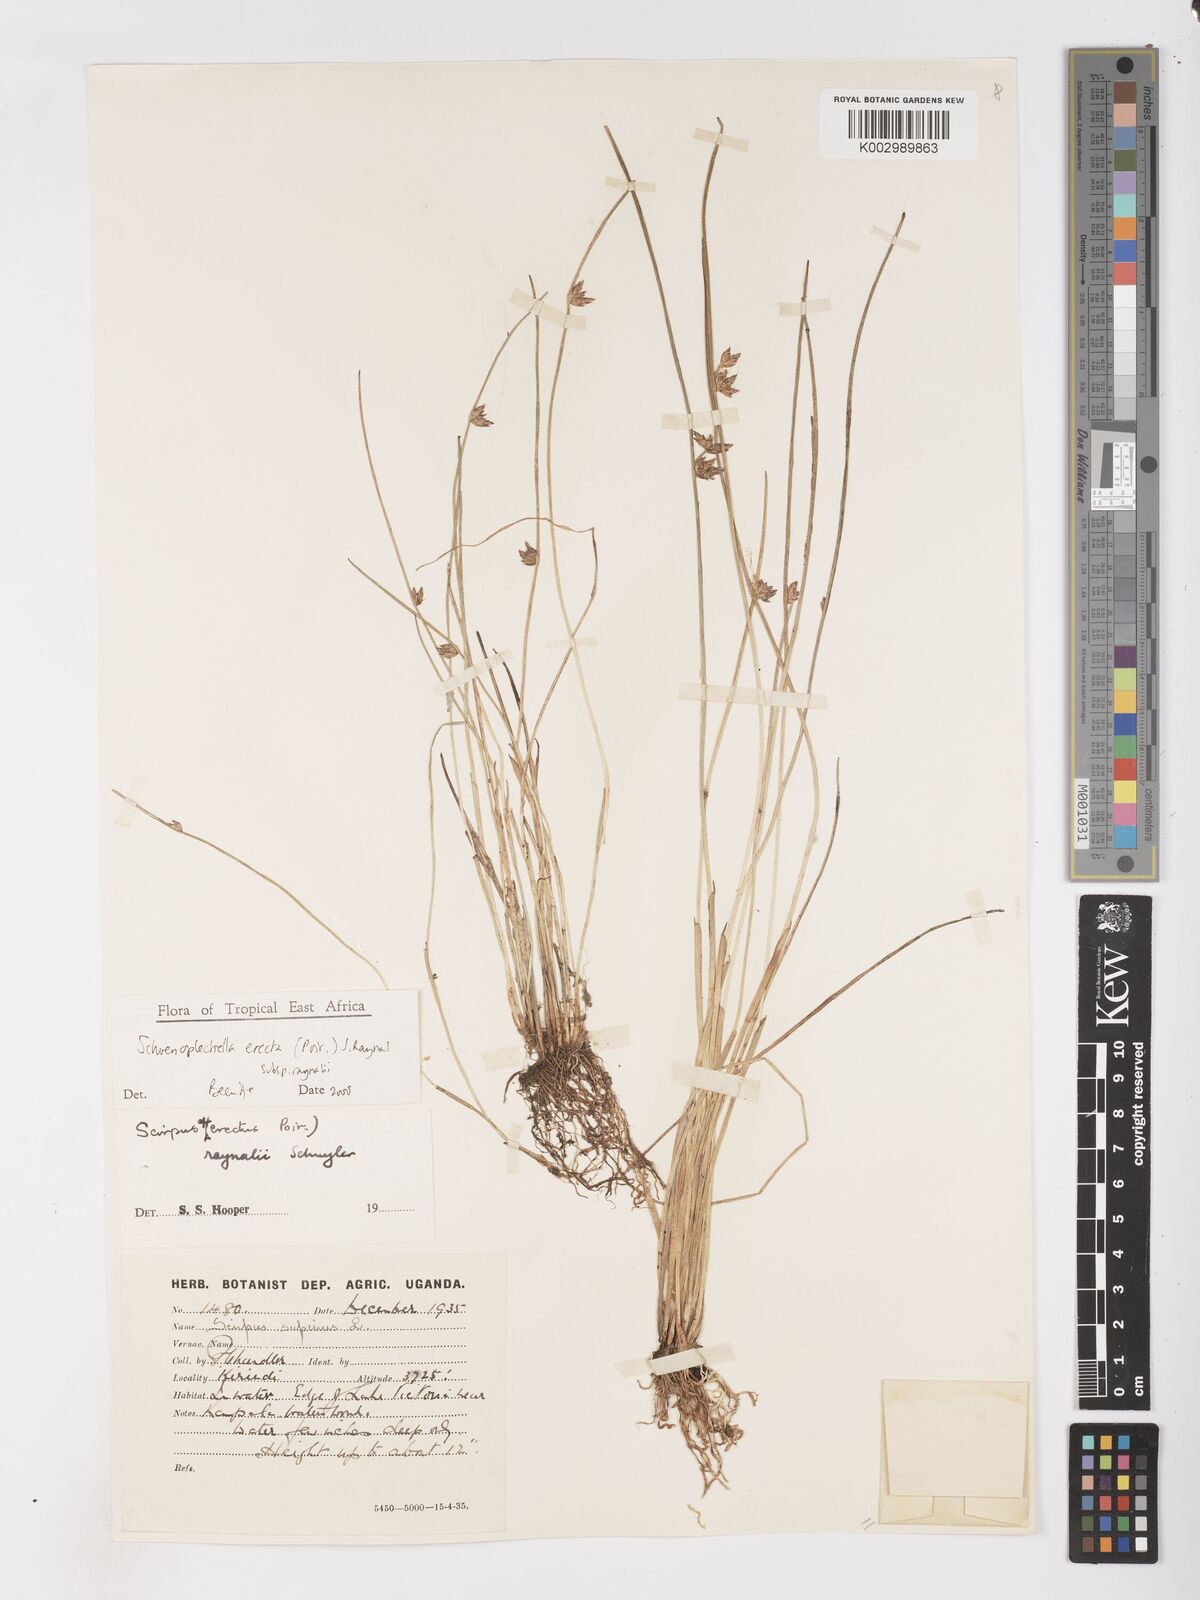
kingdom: Plantae
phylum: Tracheophyta
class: Liliopsida
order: Poales
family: Cyperaceae
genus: Schoenoplectiella
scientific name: Schoenoplectiella erecta
